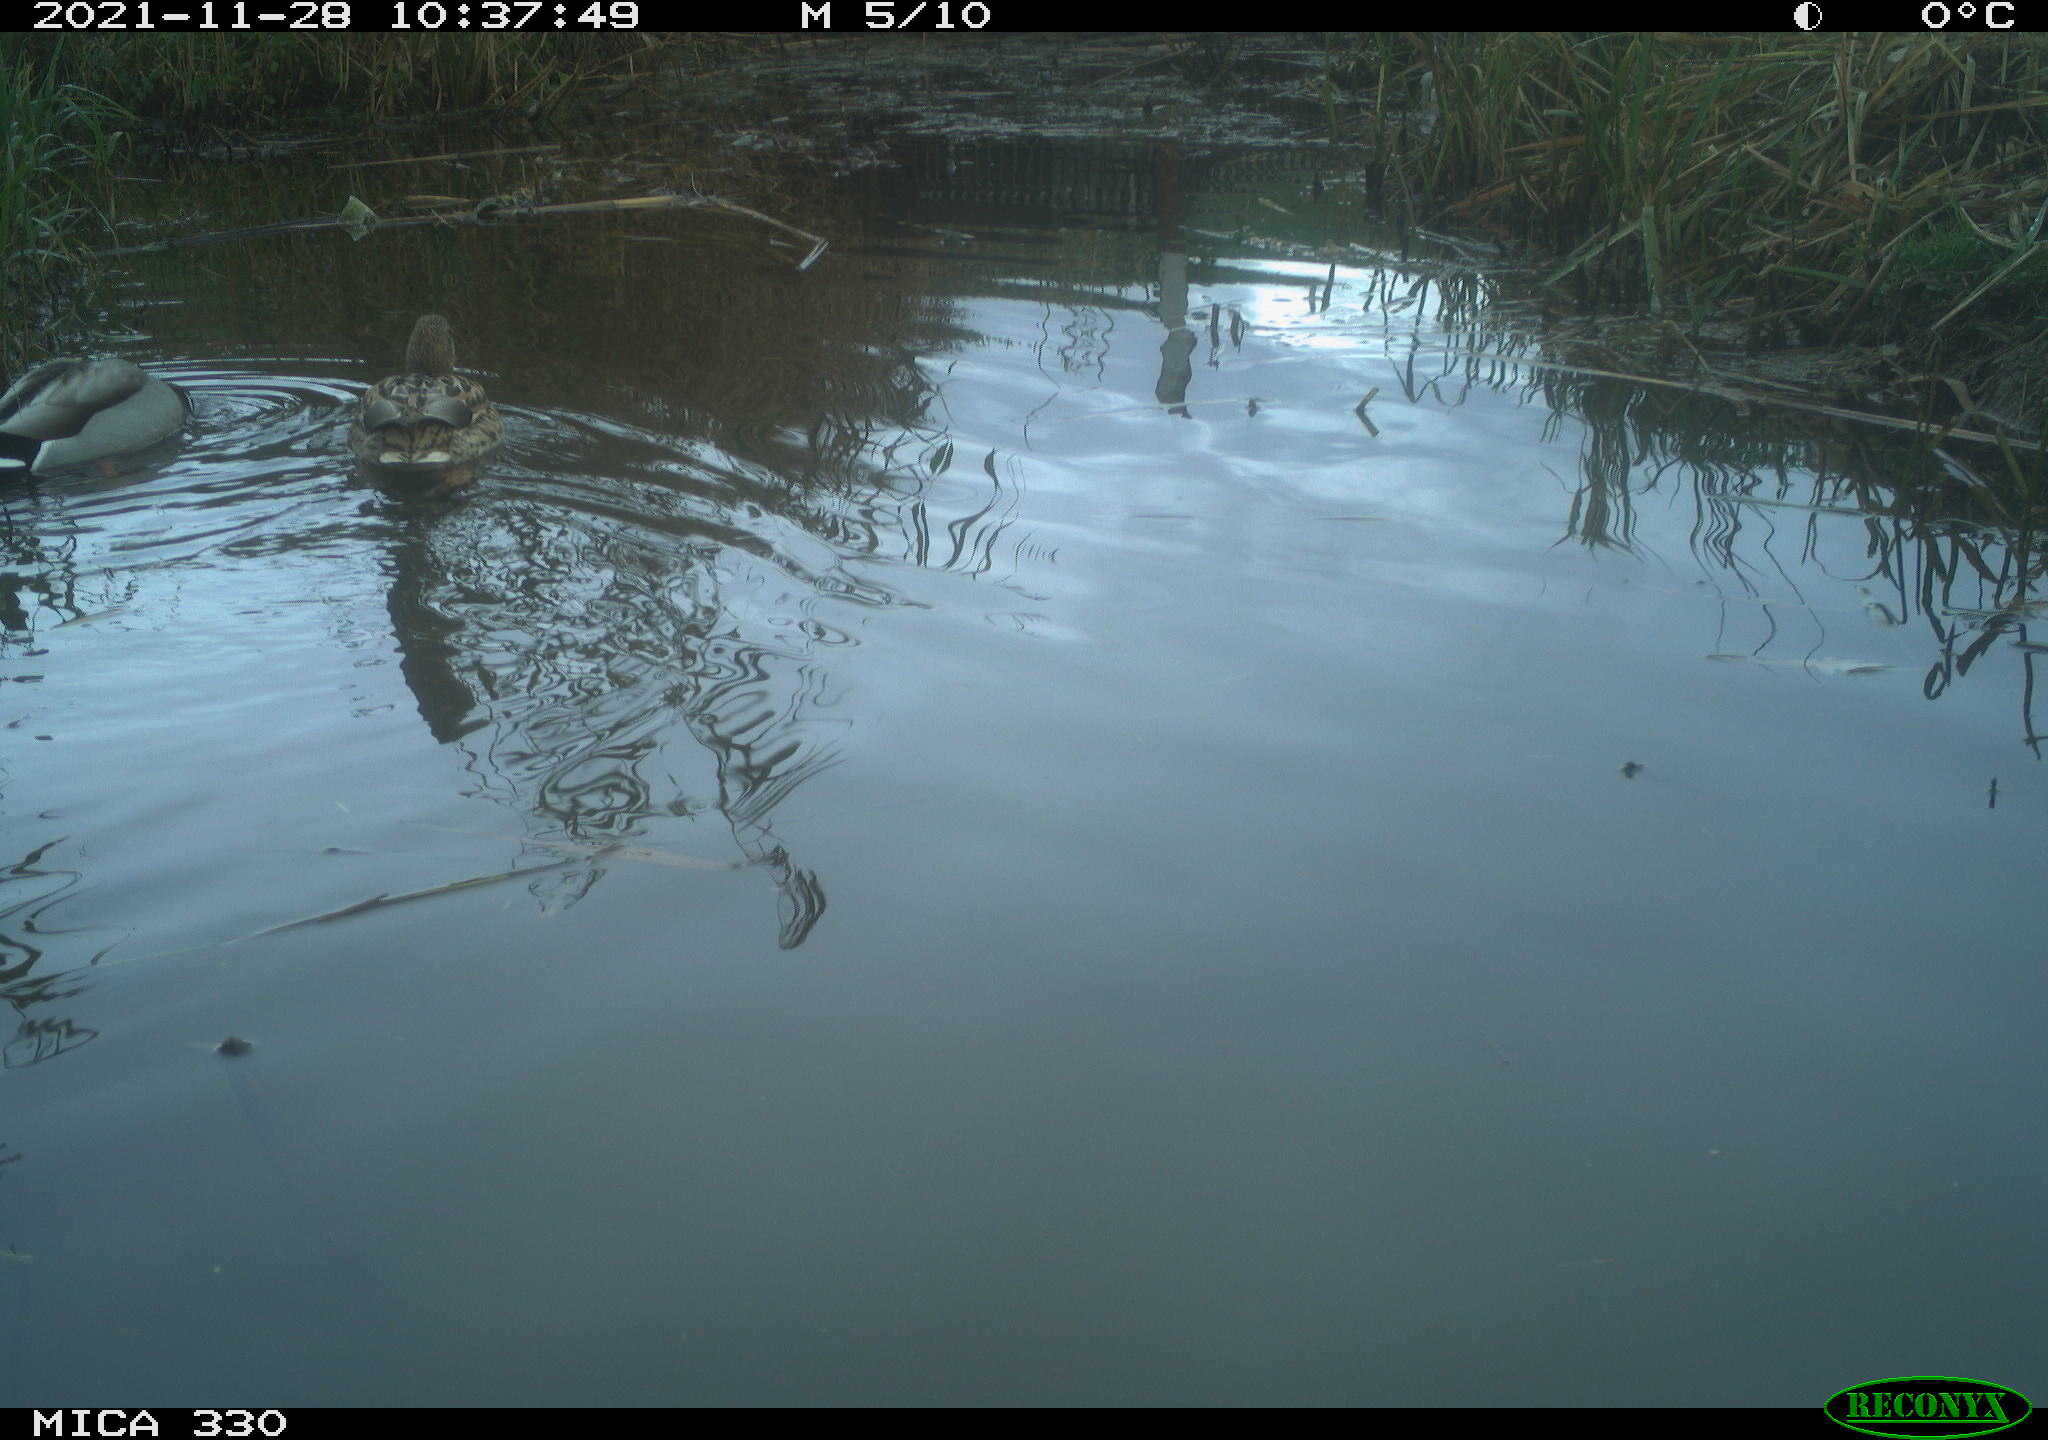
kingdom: Animalia
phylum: Chordata
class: Aves
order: Anseriformes
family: Anatidae
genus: Anas
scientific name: Anas platyrhynchos
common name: Mallard
